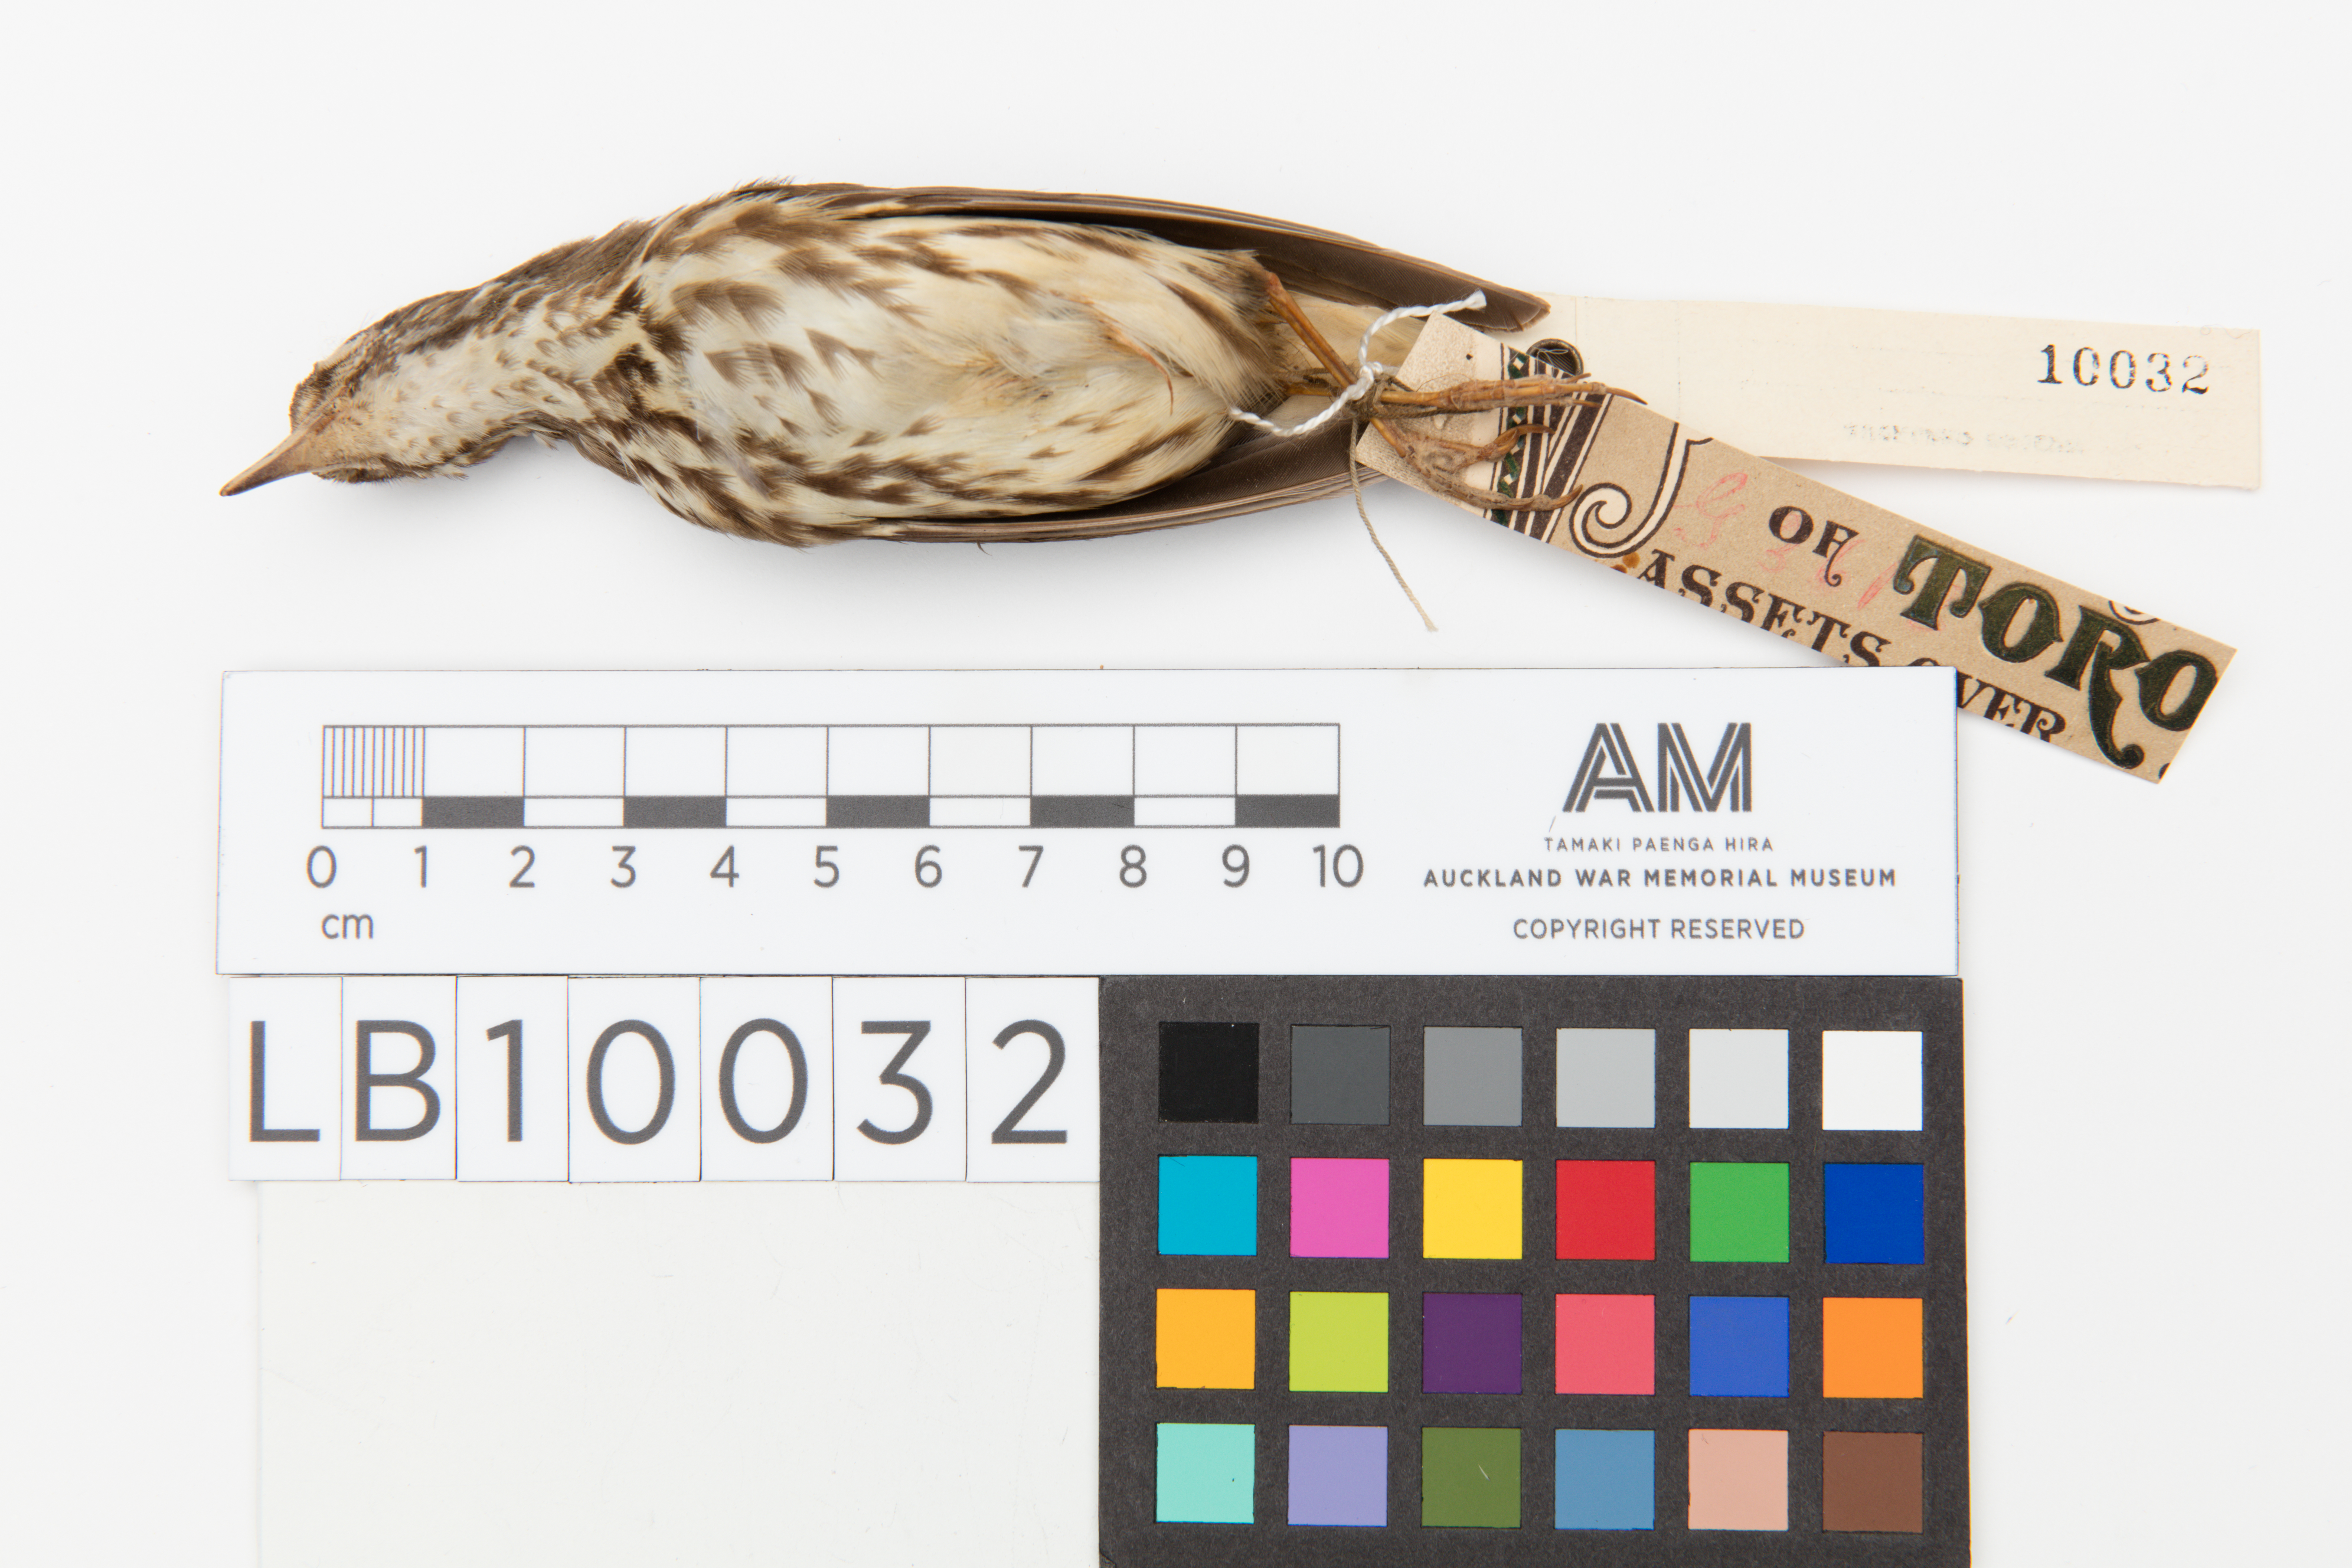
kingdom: Animalia
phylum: Chordata
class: Aves
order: Passeriformes
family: Parulidae
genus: Parkesia
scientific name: Parkesia motacilla
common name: Louisiana waterthrush
